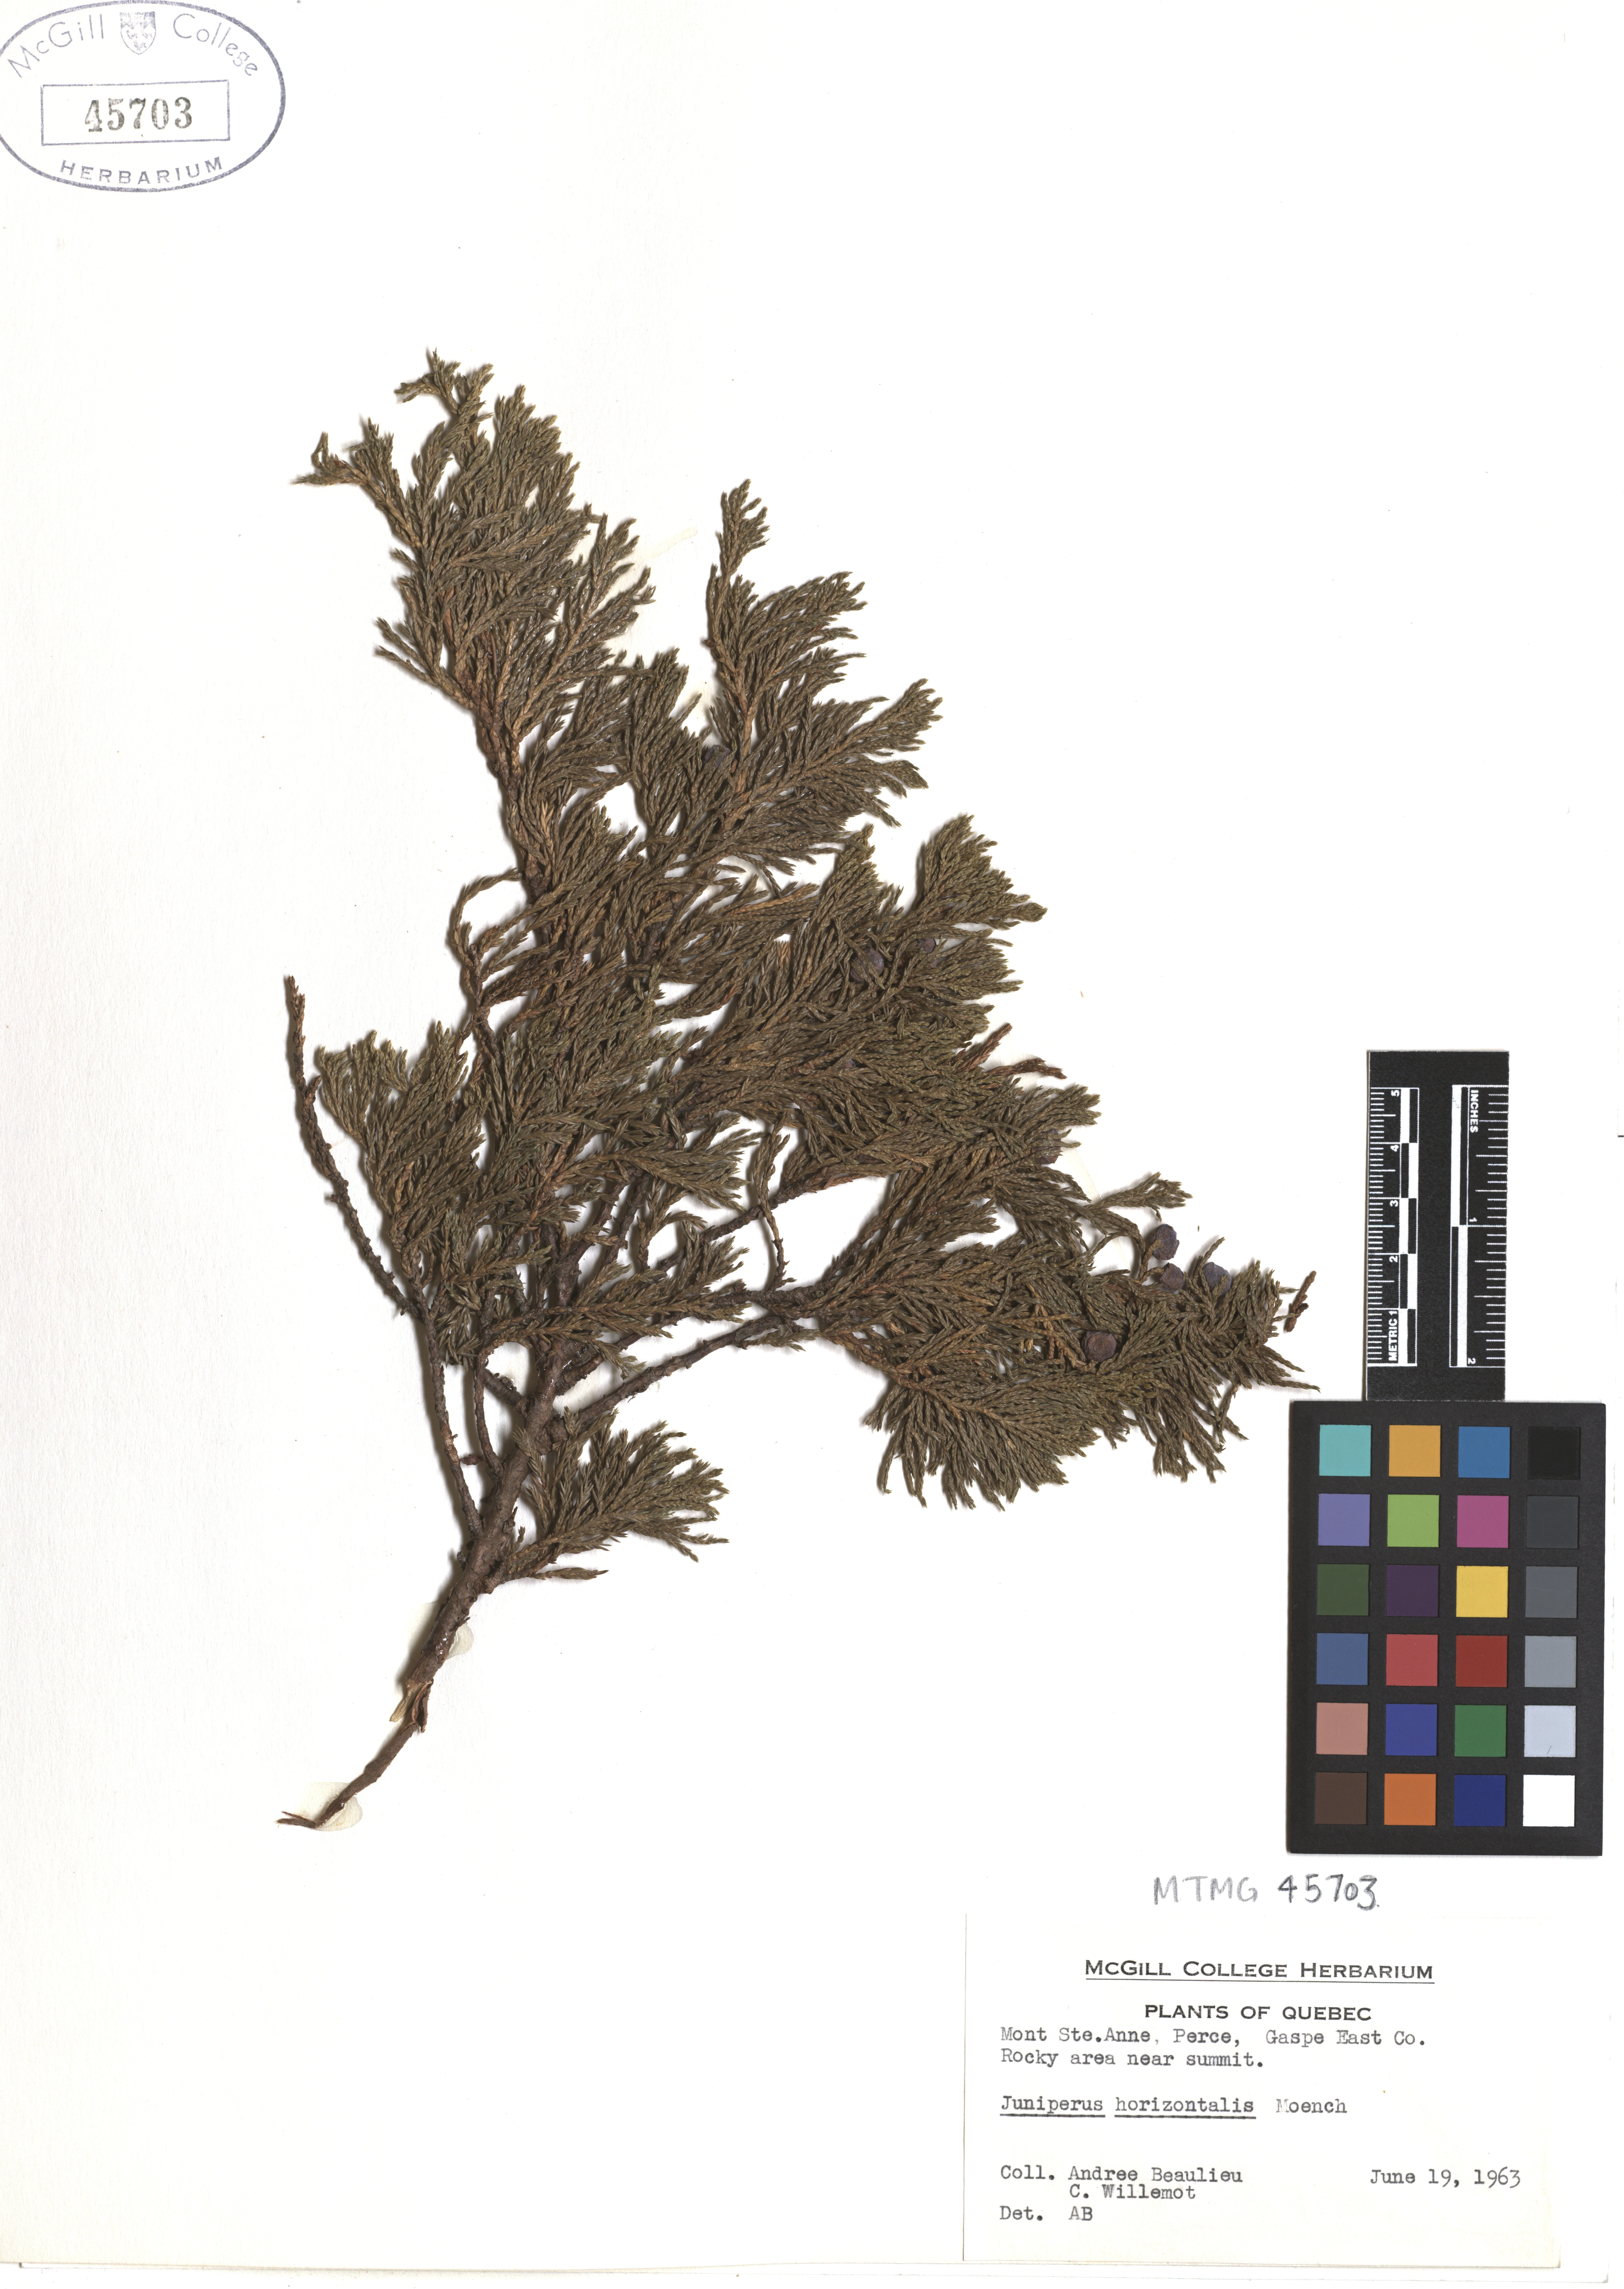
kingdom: Plantae
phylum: Tracheophyta
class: Pinopsida
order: Pinales
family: Cupressaceae
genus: Juniperus
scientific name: Juniperus horizontalis
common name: Creeping juniper
